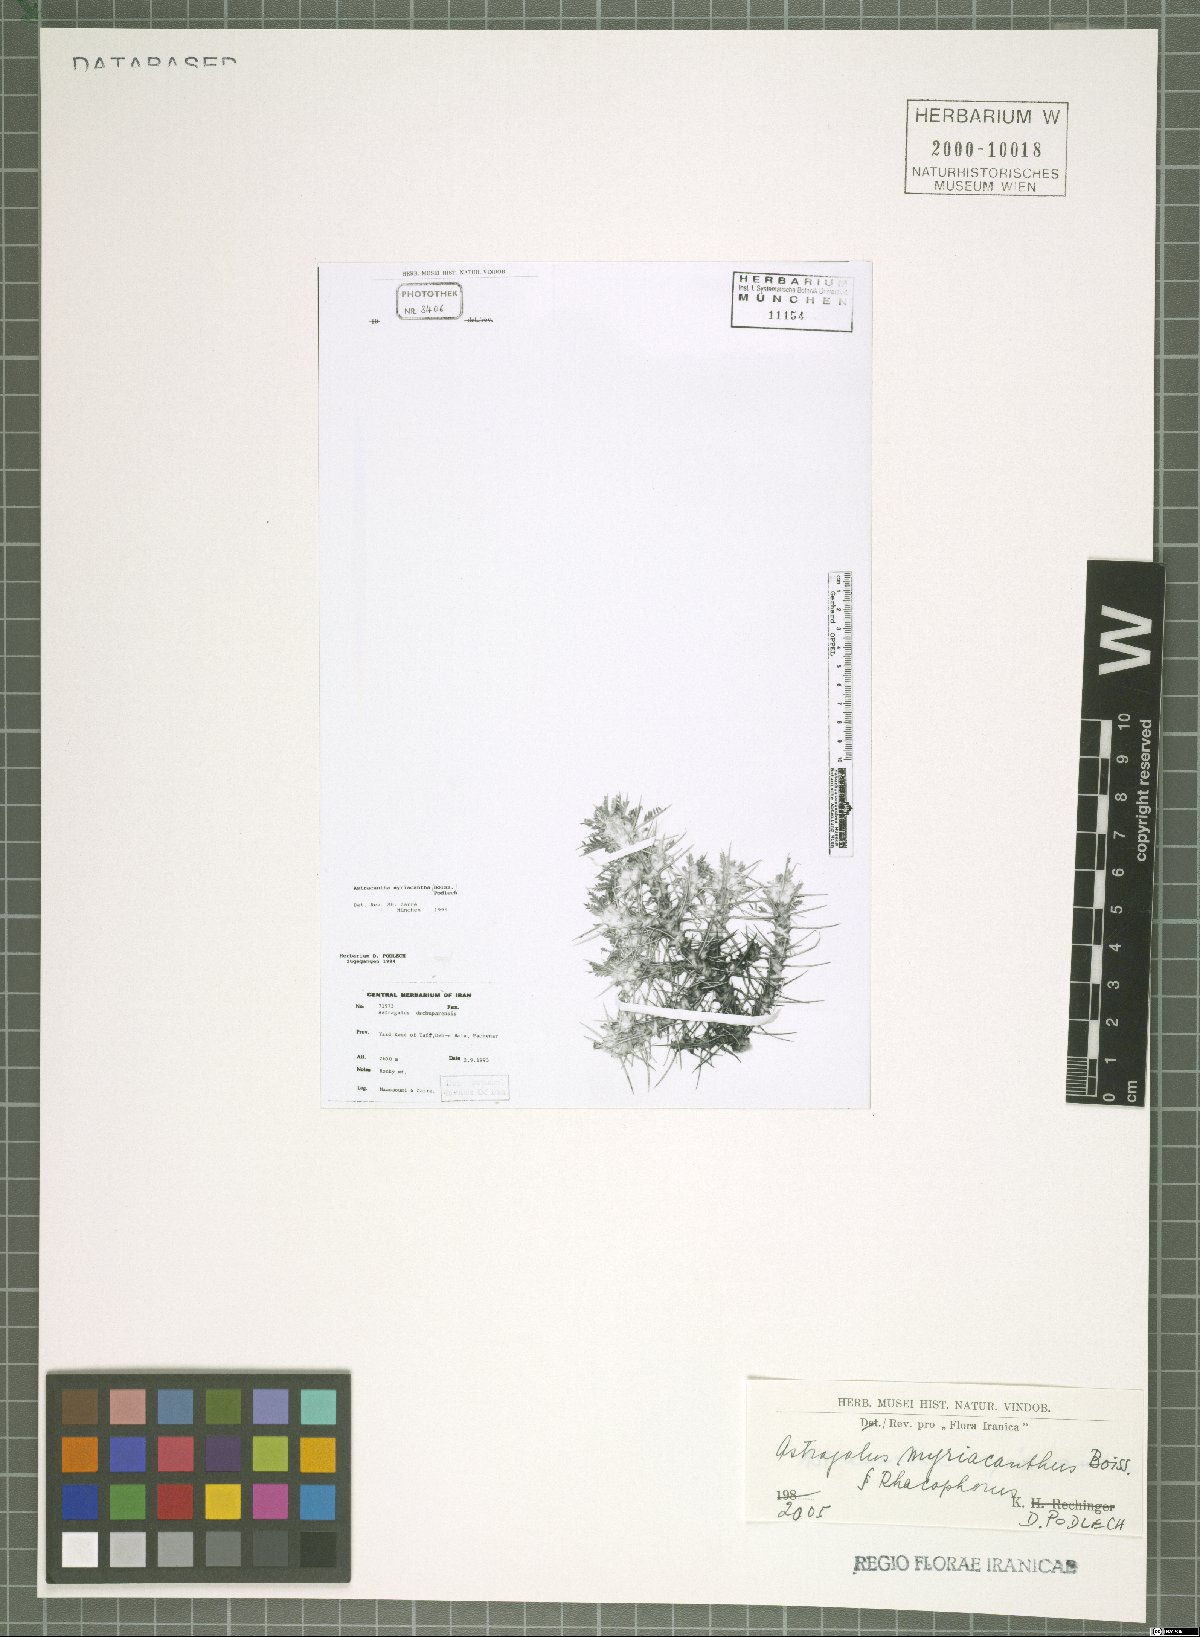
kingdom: Plantae
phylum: Tracheophyta
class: Magnoliopsida
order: Fabales
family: Fabaceae
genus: Astragalus
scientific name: Astragalus myriacanthus
